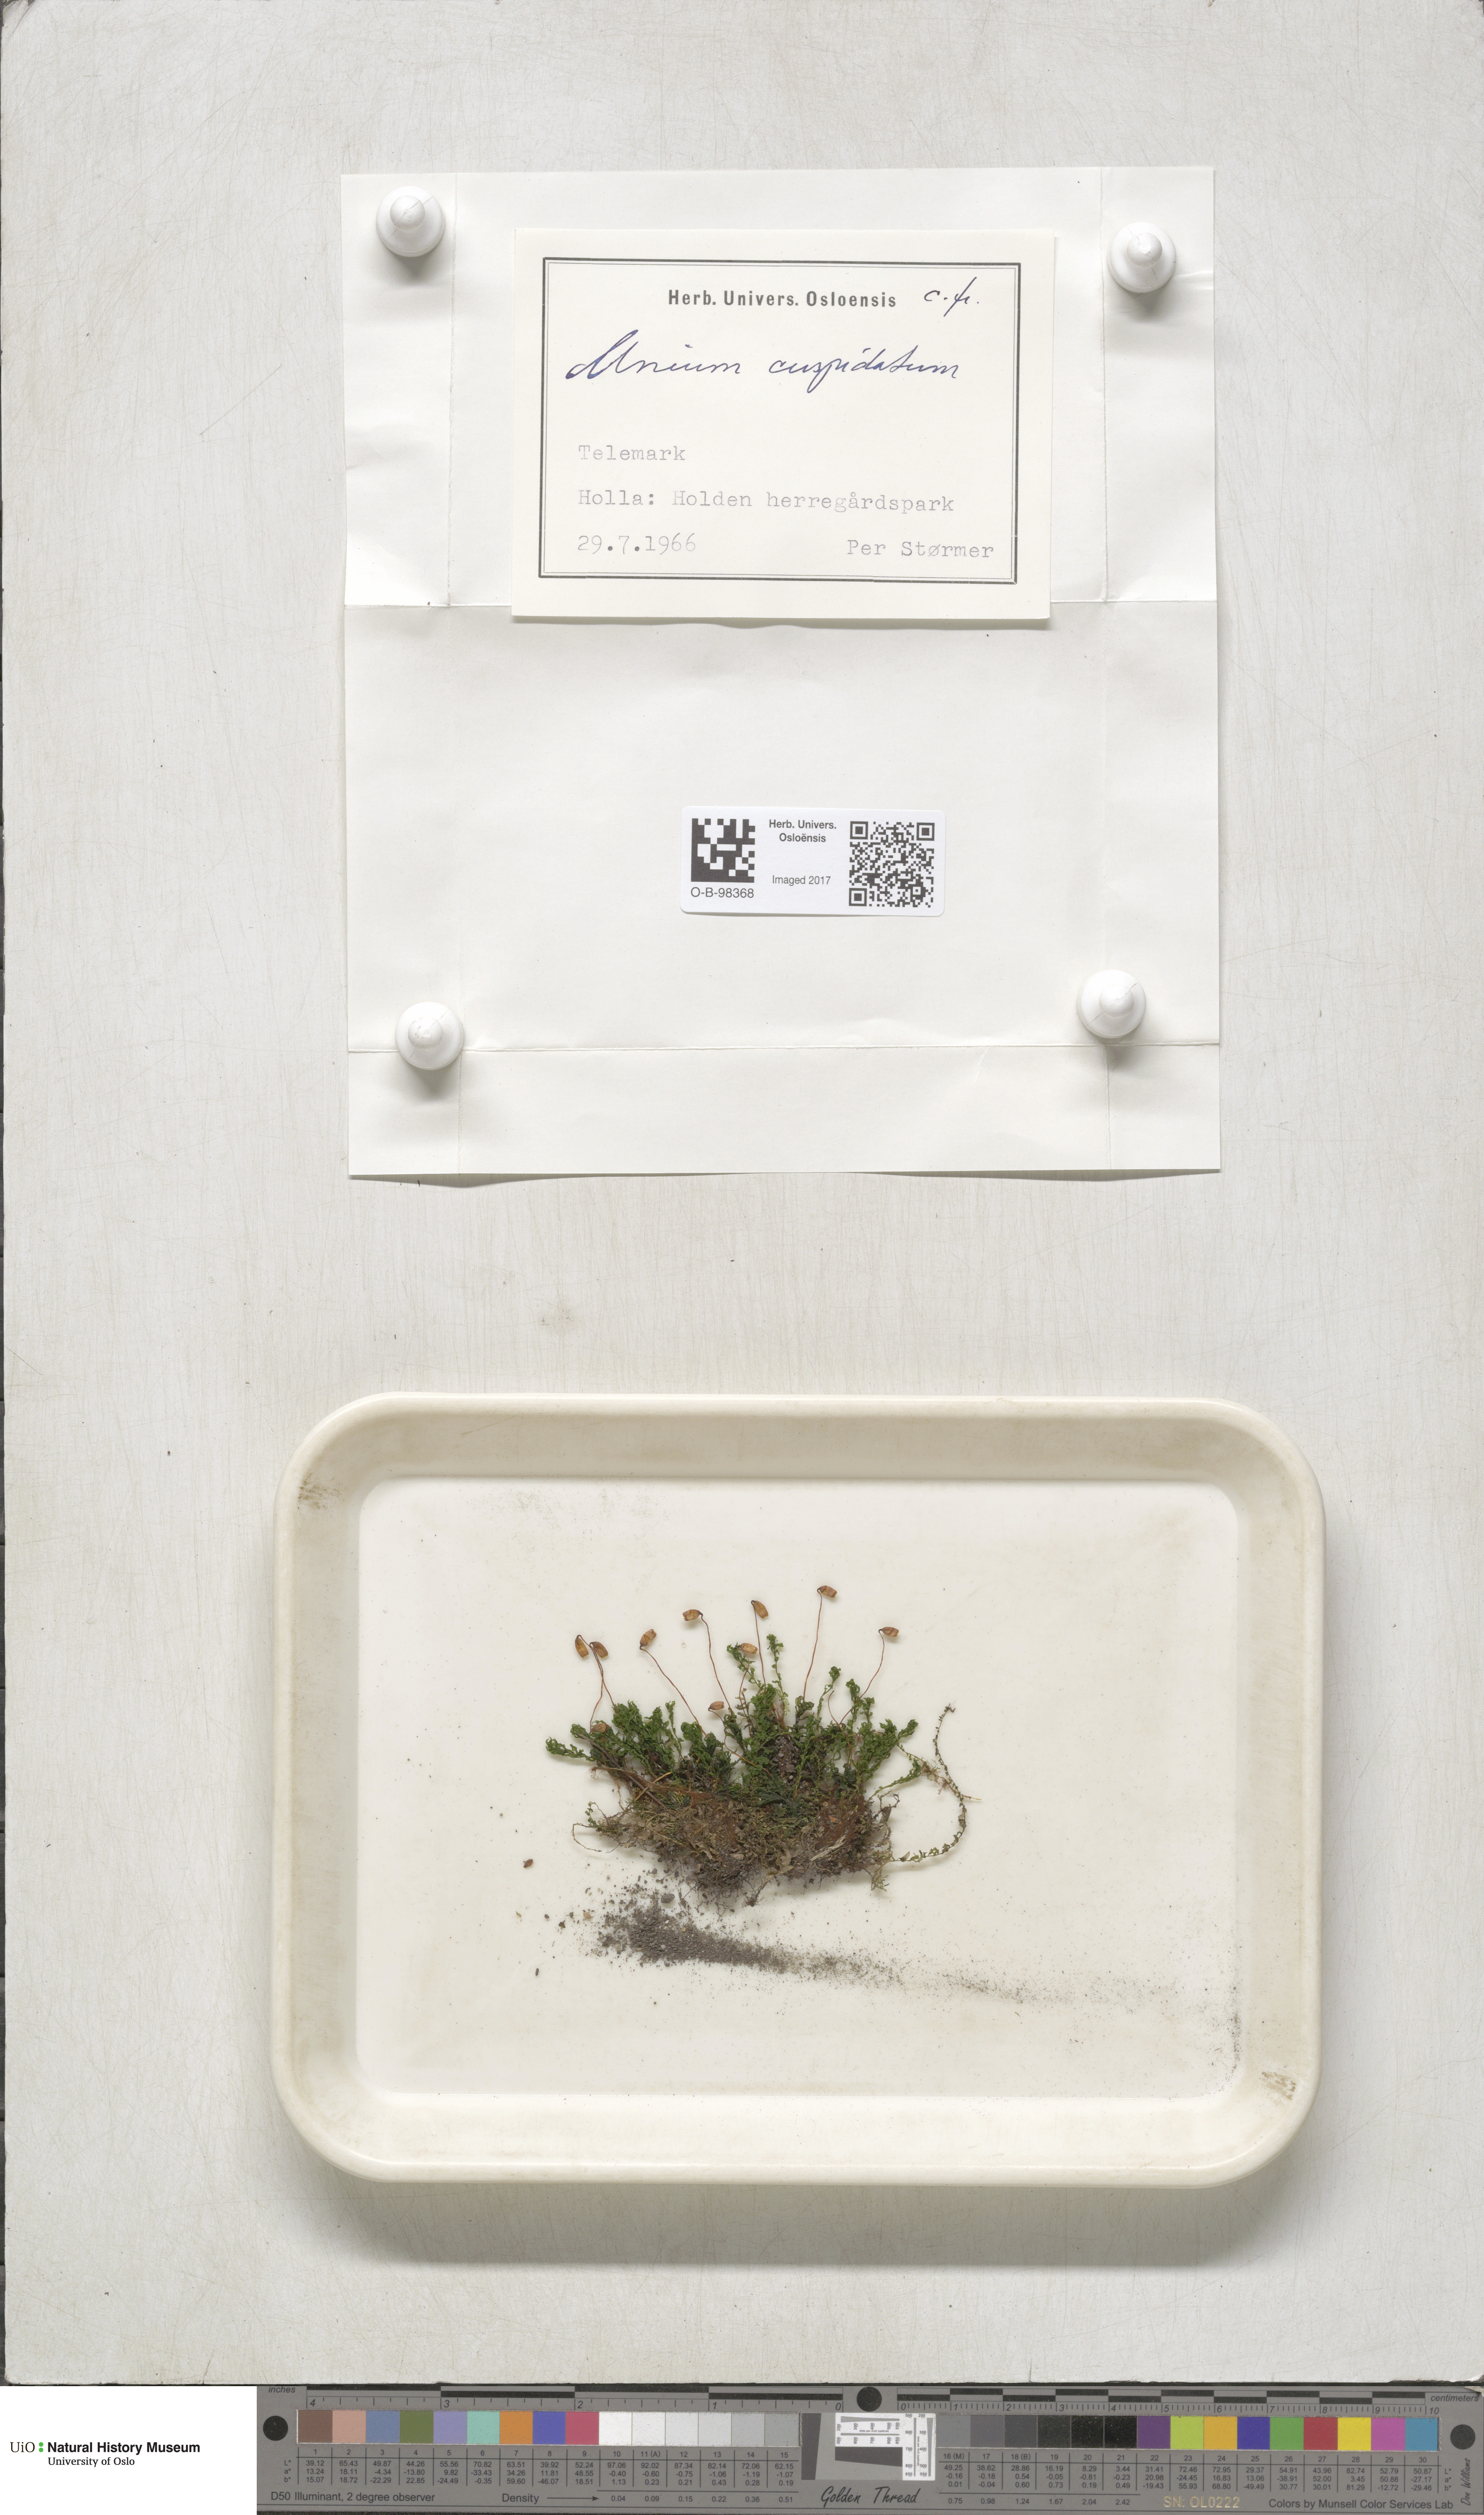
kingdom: Plantae
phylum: Bryophyta
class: Bryopsida
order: Bryales
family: Mniaceae
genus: Plagiomnium
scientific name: Plagiomnium cuspidatum
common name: Woodsy leafy moss
